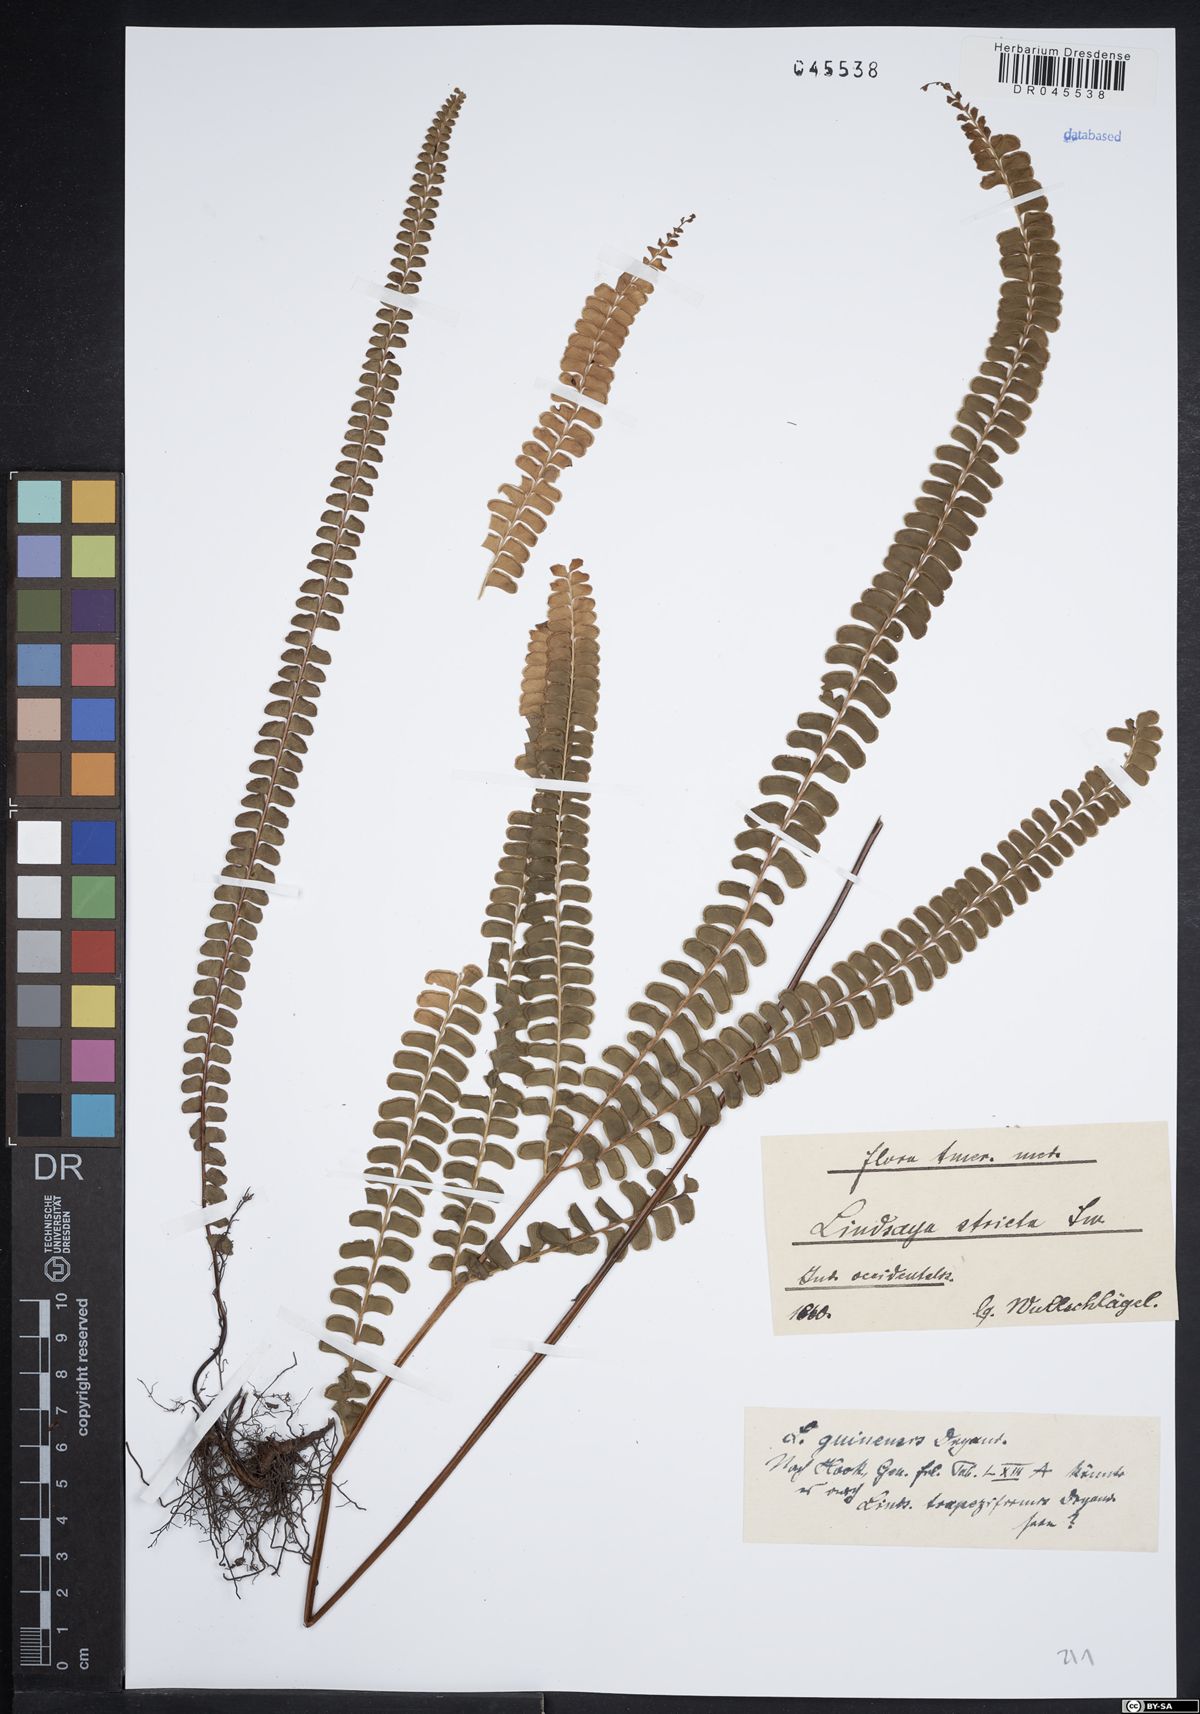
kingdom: Plantae
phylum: Tracheophyta
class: Polypodiopsida
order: Polypodiales
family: Lindsaeaceae
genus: Lindsaea
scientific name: Lindsaea guianensis
